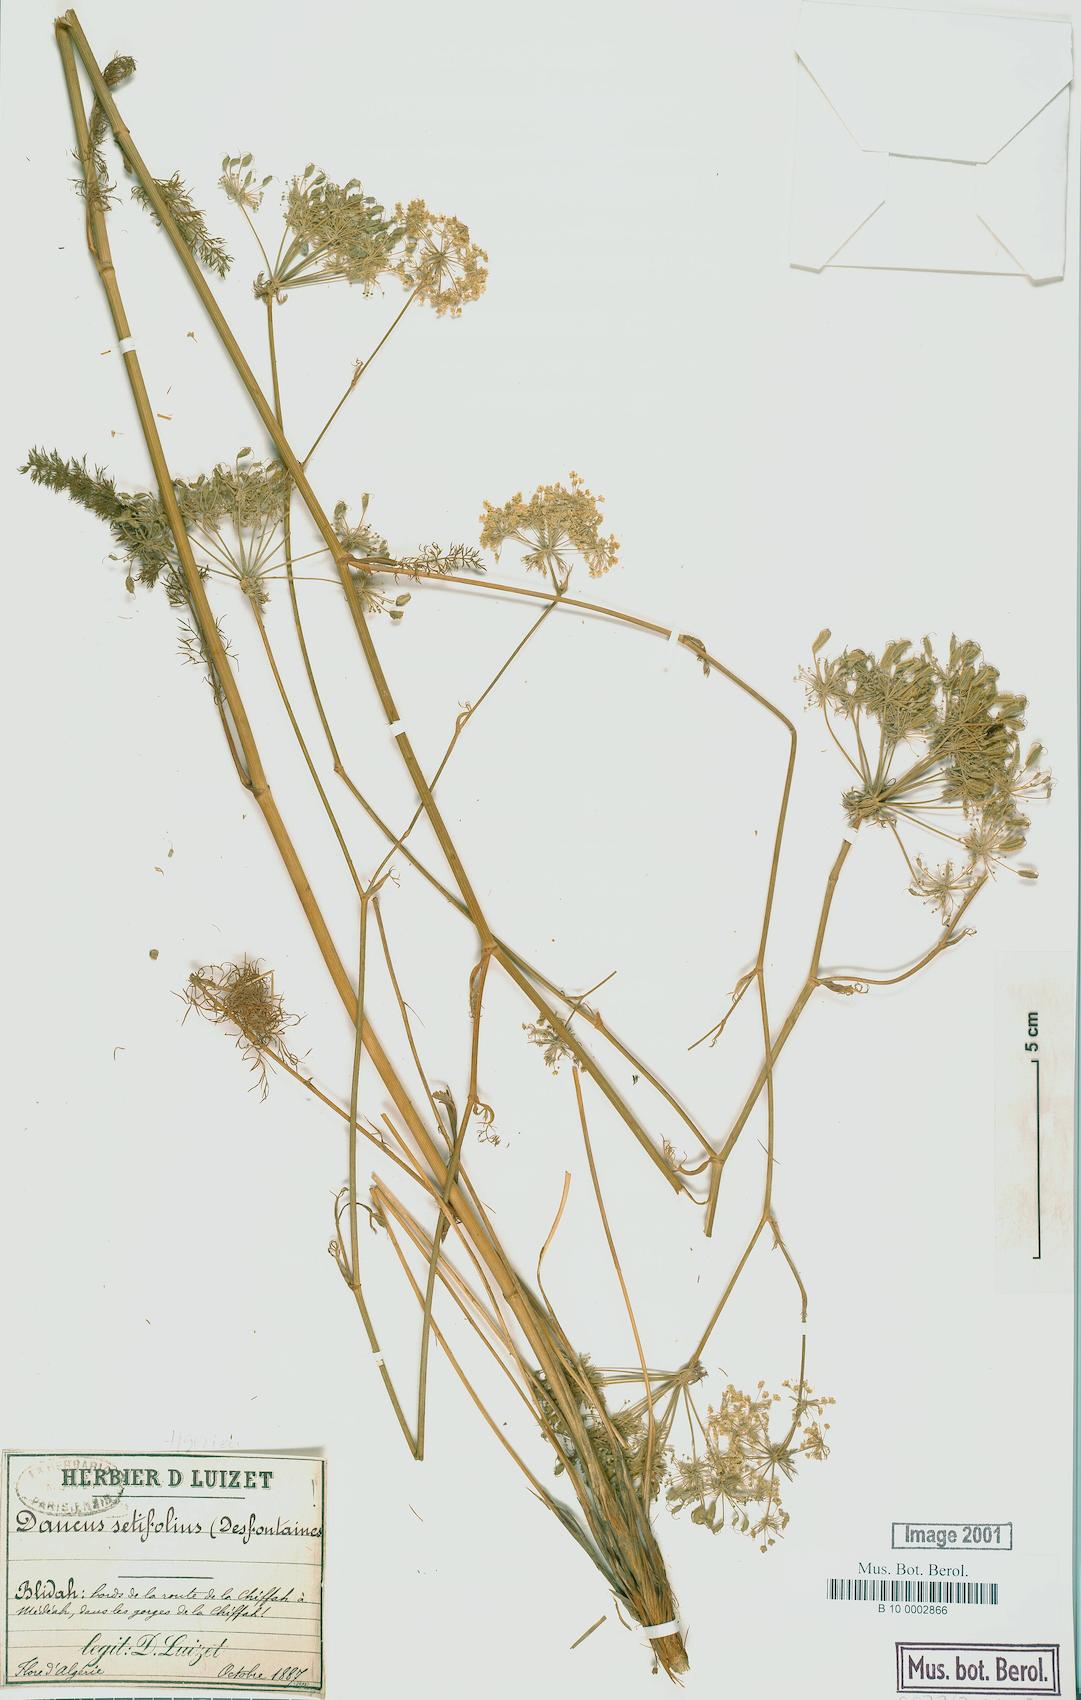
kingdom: Plantae
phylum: Tracheophyta
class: Magnoliopsida
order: Apiales
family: Apiaceae
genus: Daucus
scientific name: Daucus setifolius
